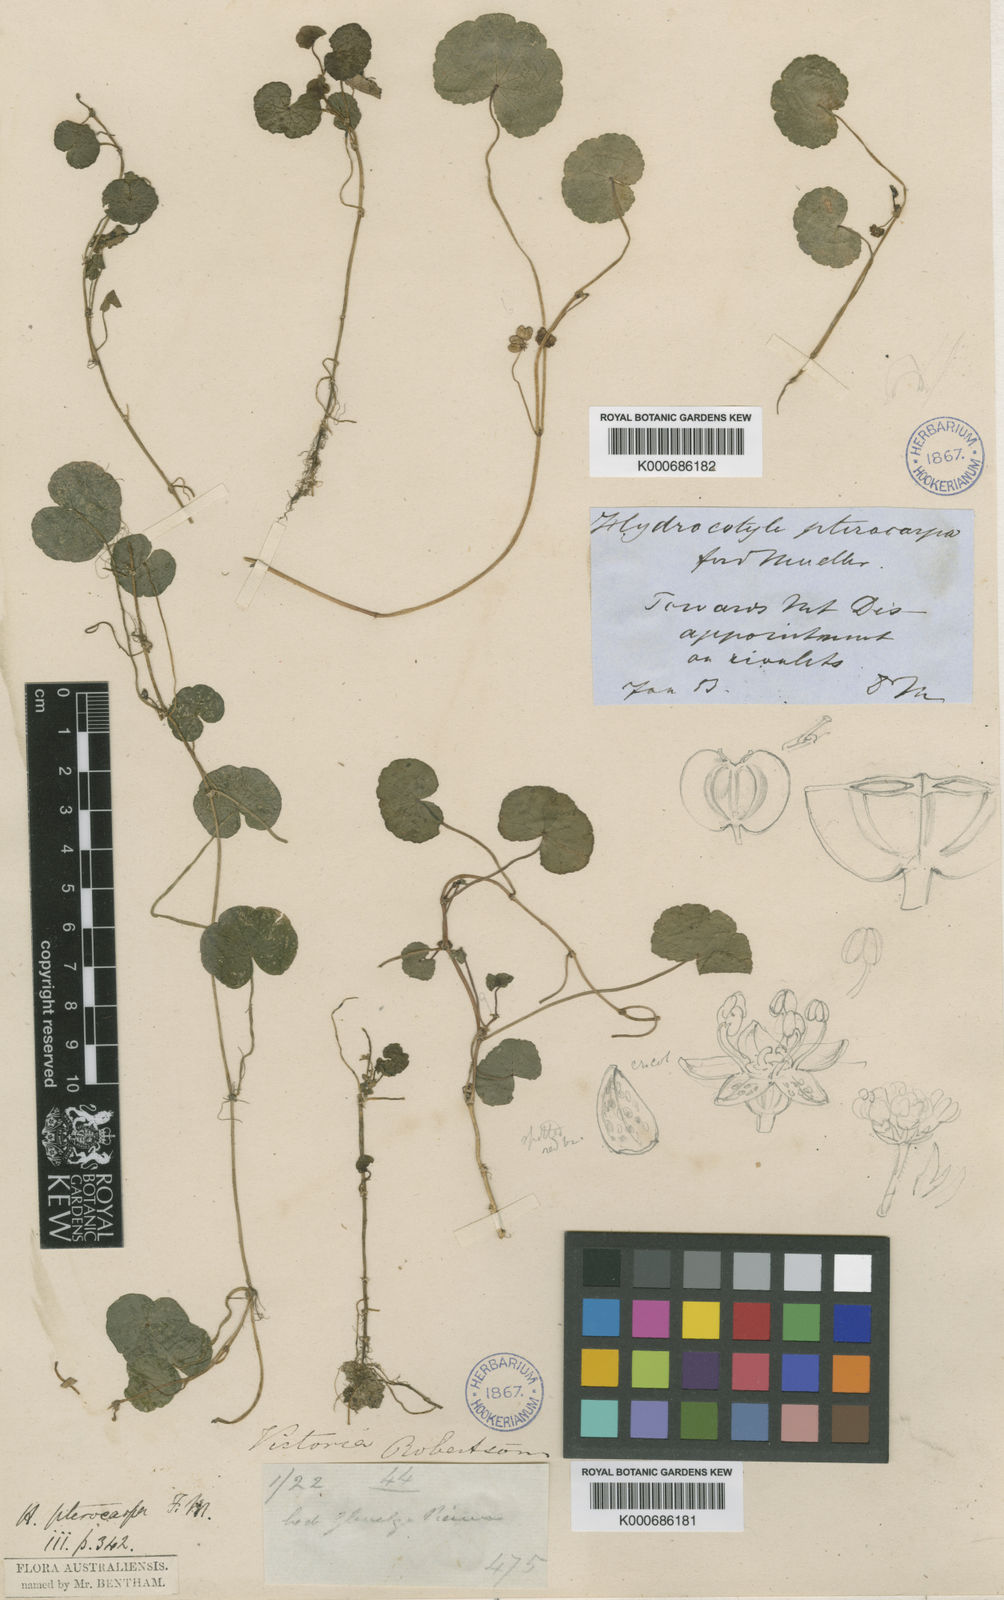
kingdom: Plantae
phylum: Tracheophyta
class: Magnoliopsida
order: Apiales
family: Araliaceae
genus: Hydrocotyle
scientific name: Hydrocotyle pterocarpa
